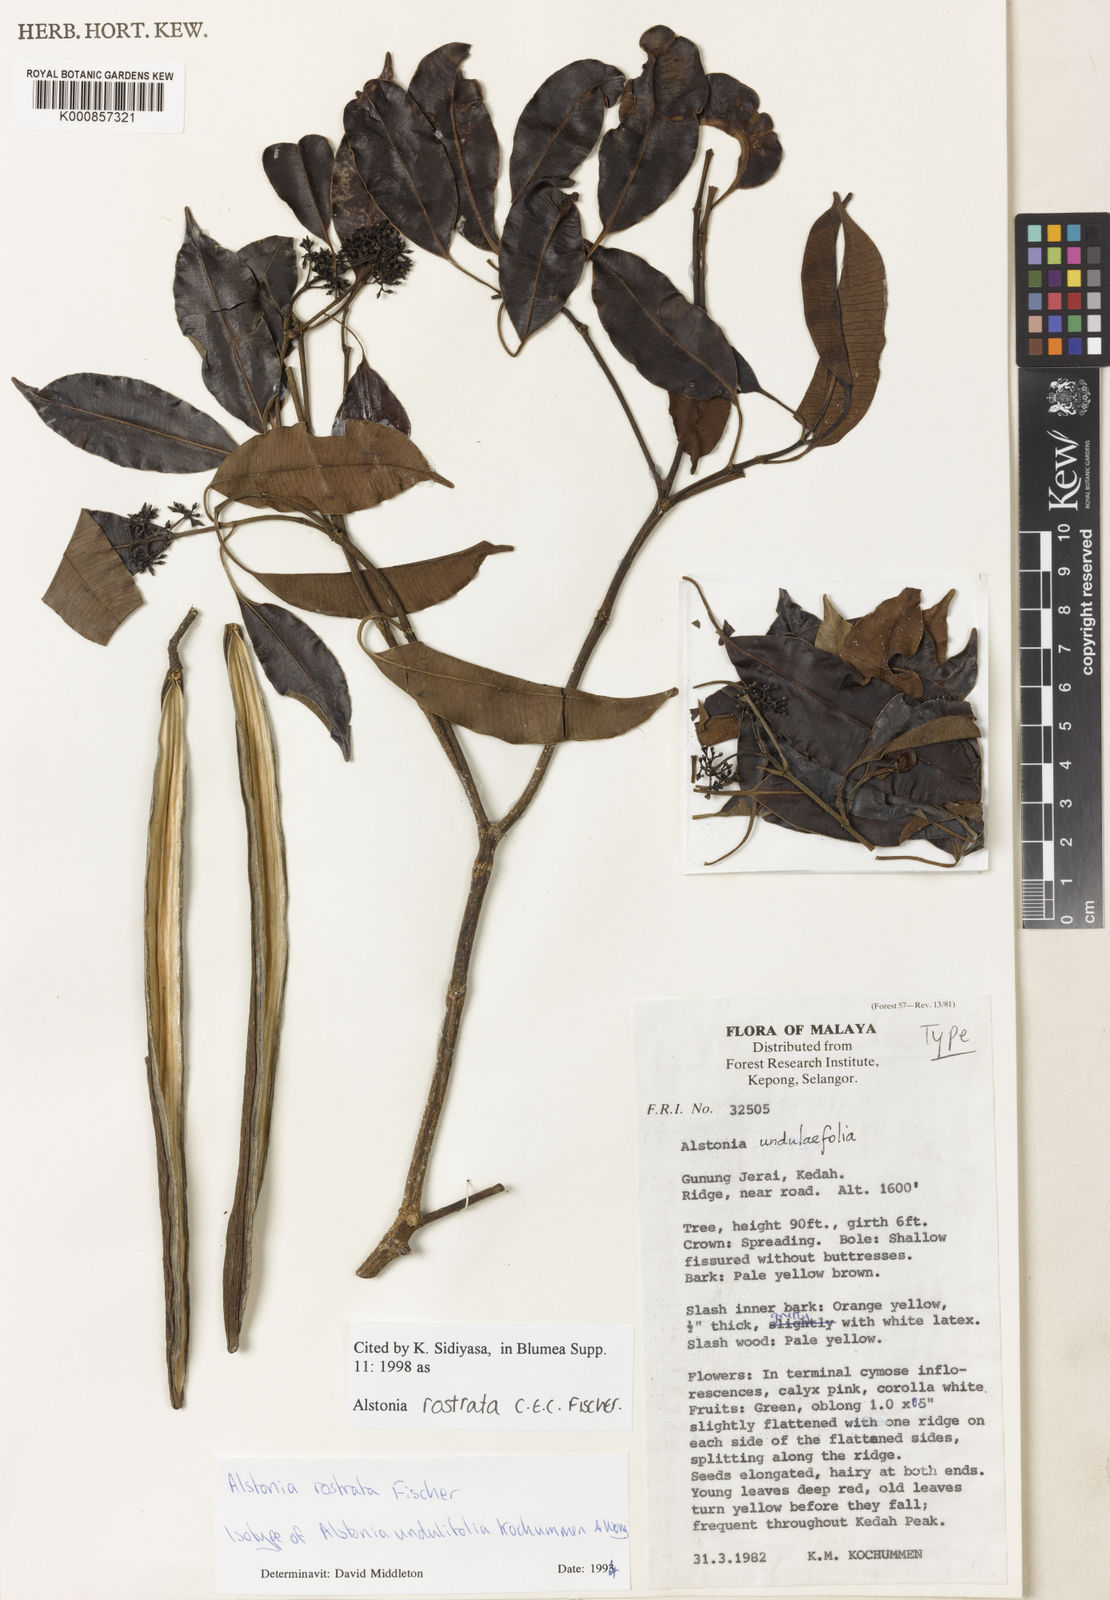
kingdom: Plantae
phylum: Tracheophyta
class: Magnoliopsida
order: Gentianales
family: Apocynaceae
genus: Alstonia
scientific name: Alstonia rostrata
